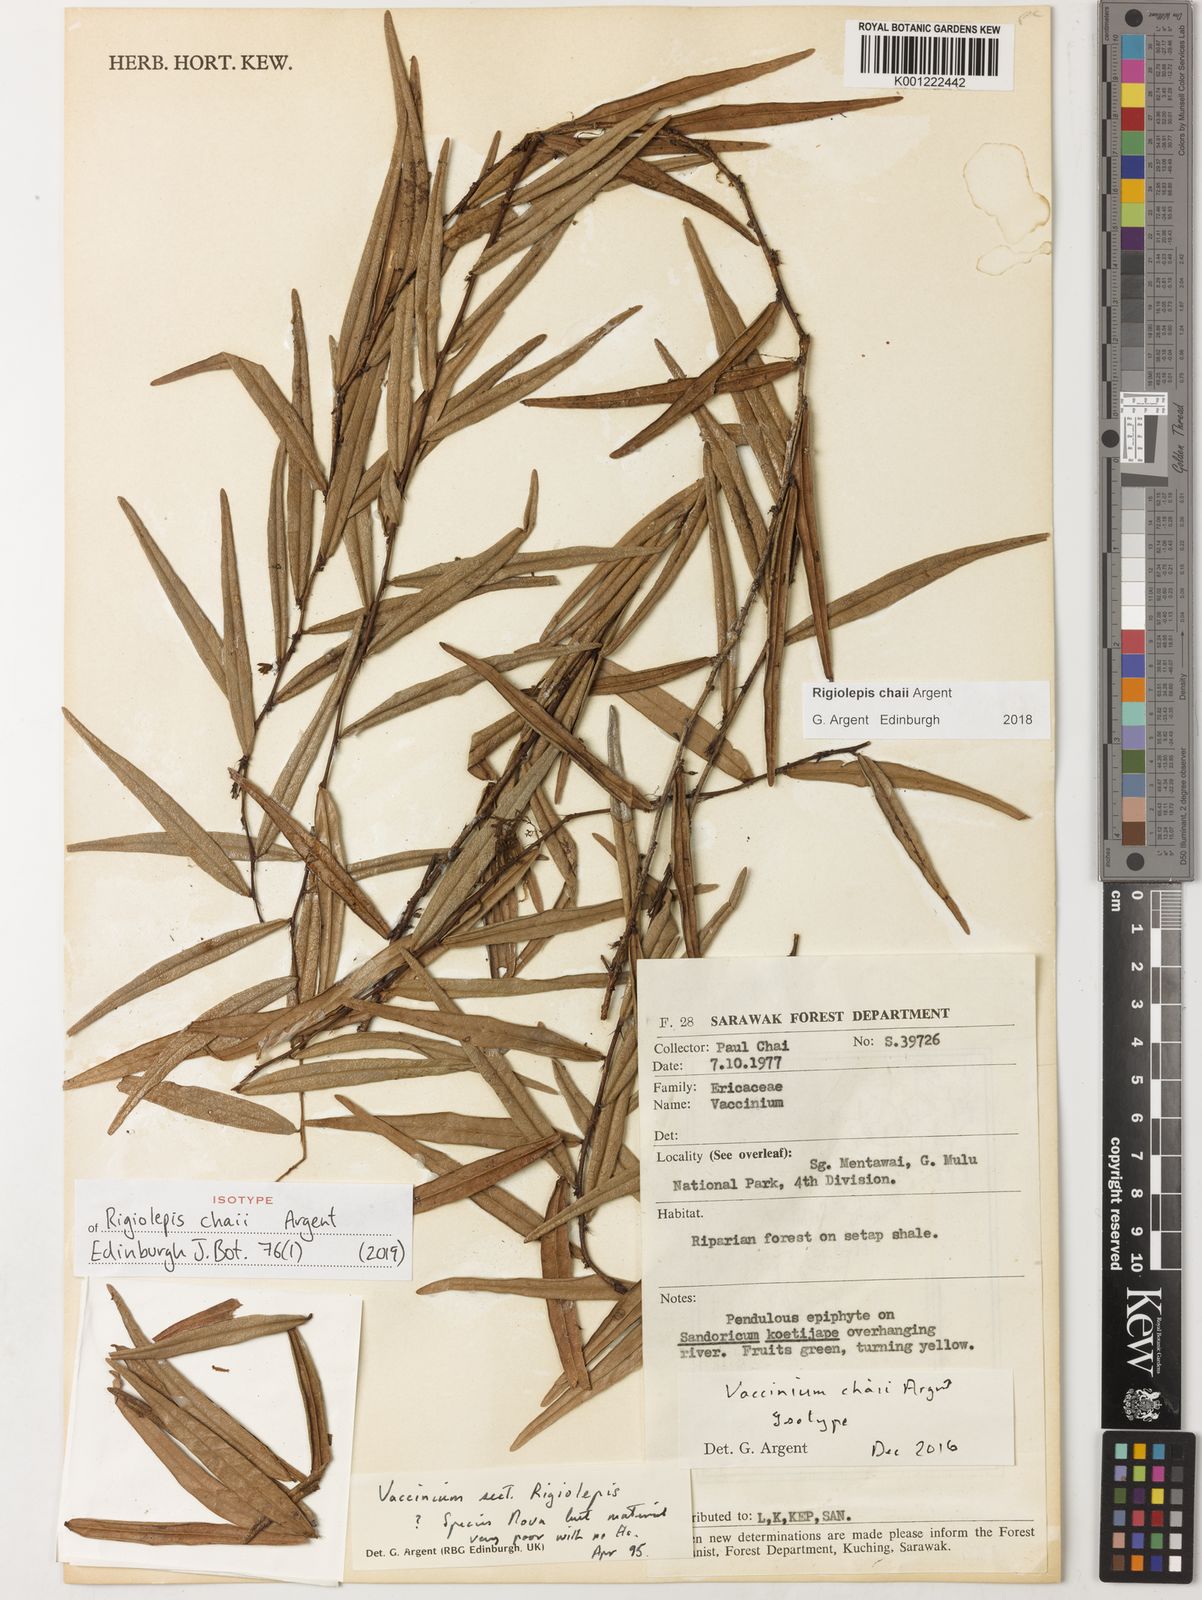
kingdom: Plantae
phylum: Tracheophyta
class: Magnoliopsida
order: Ericales
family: Ericaceae
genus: Rigiolepis
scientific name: Rigiolepis chaii
